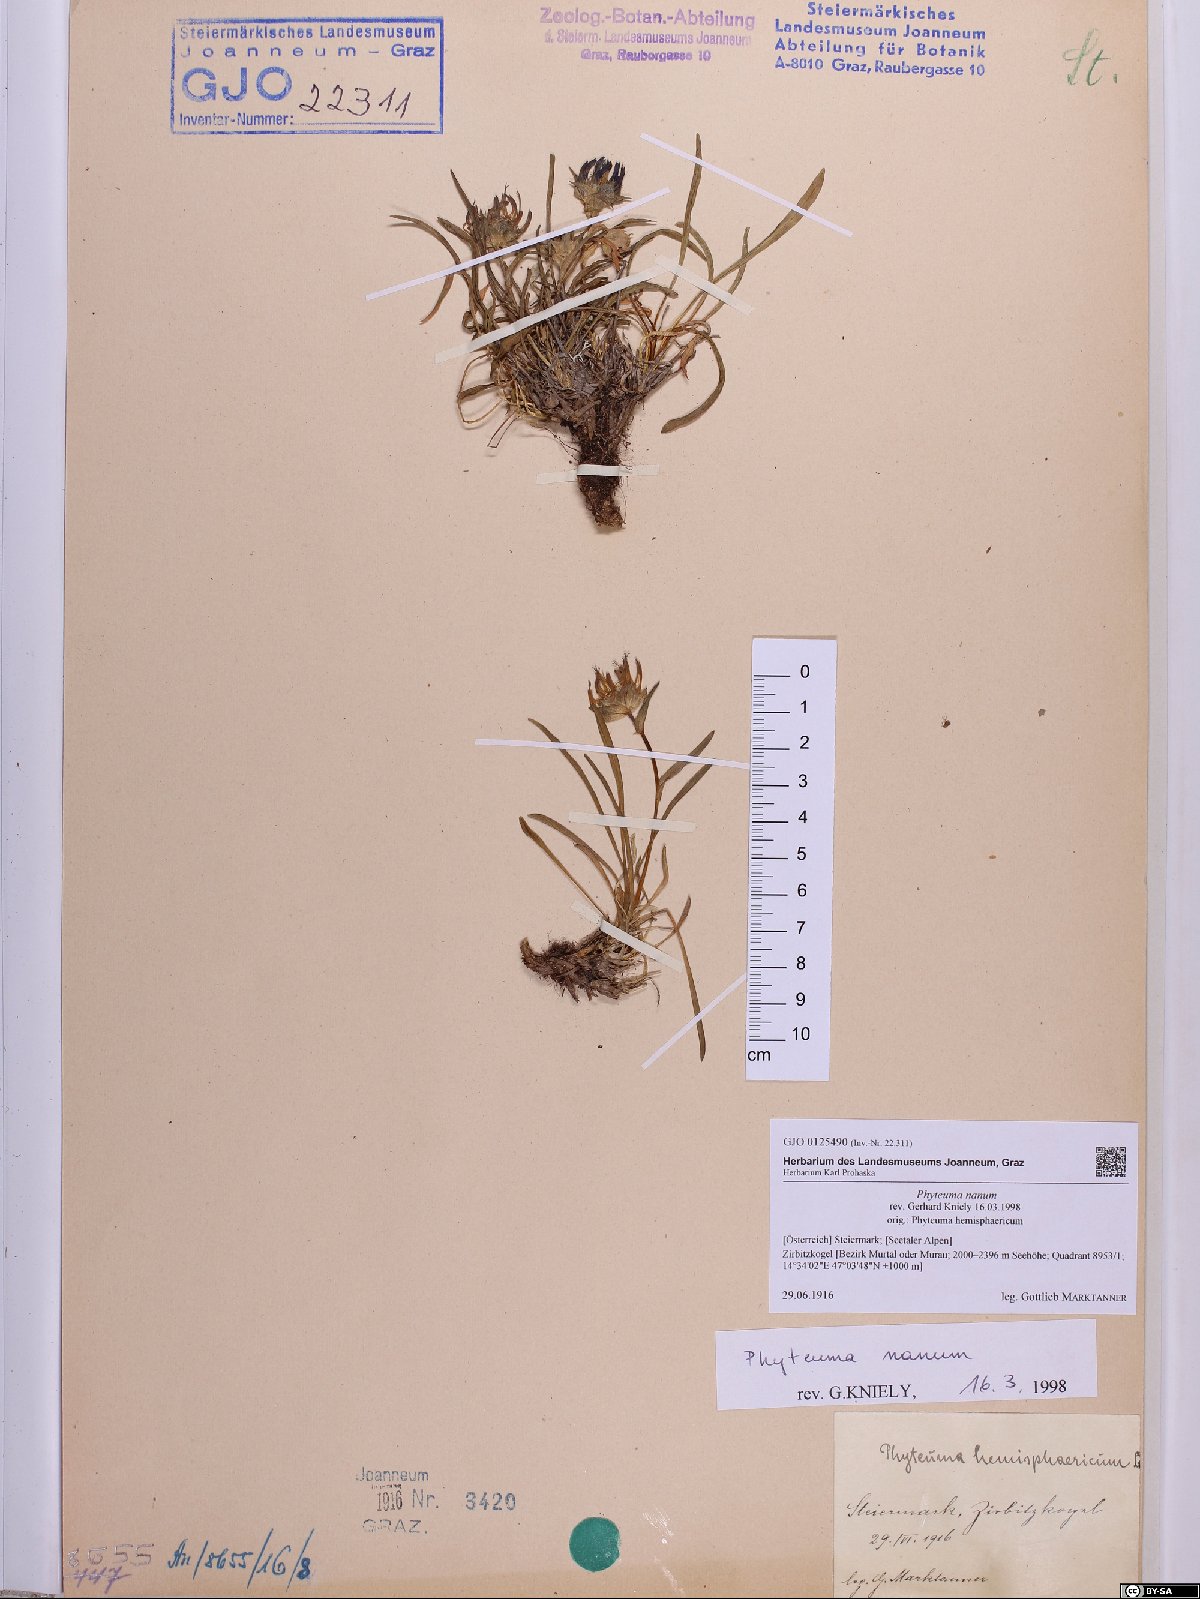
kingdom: Plantae
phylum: Tracheophyta
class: Magnoliopsida
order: Asterales
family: Campanulaceae
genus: Phyteuma
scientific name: Phyteuma globulariifolium
